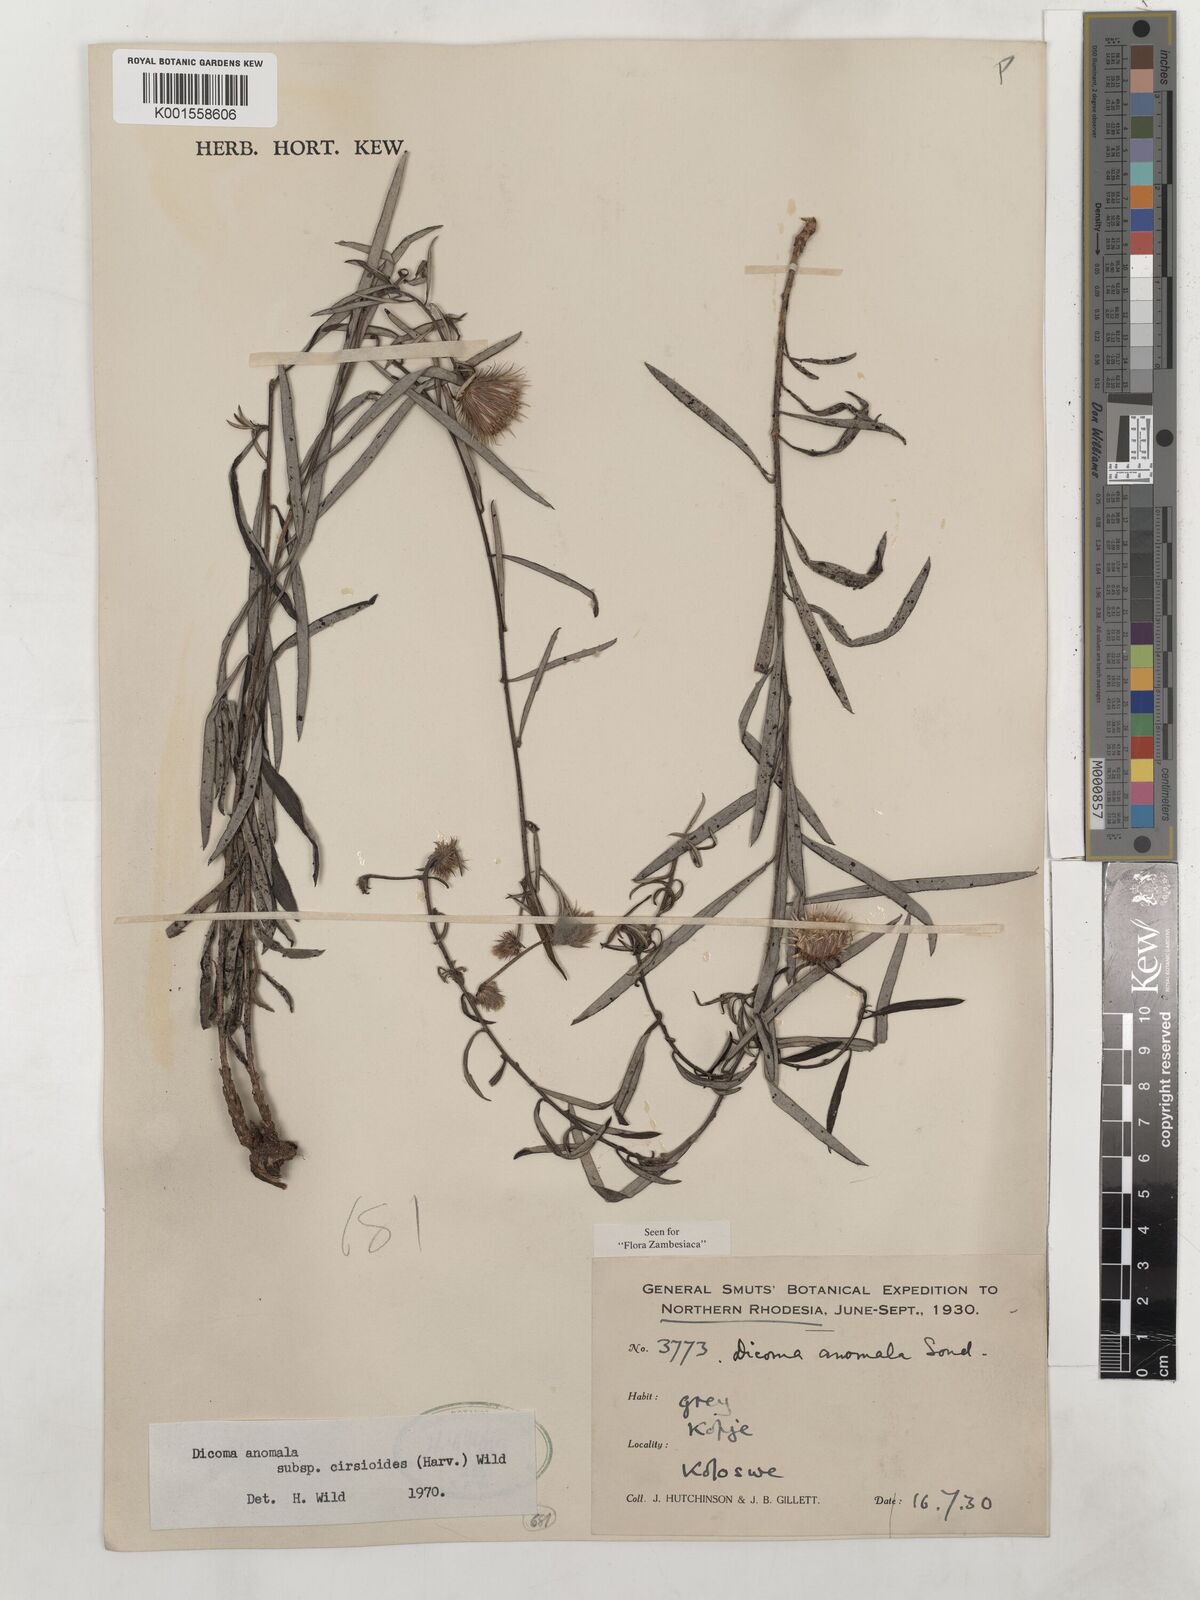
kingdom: Plantae
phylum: Tracheophyta
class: Magnoliopsida
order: Asterales
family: Asteraceae
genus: Dicoma
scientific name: Dicoma anomala
